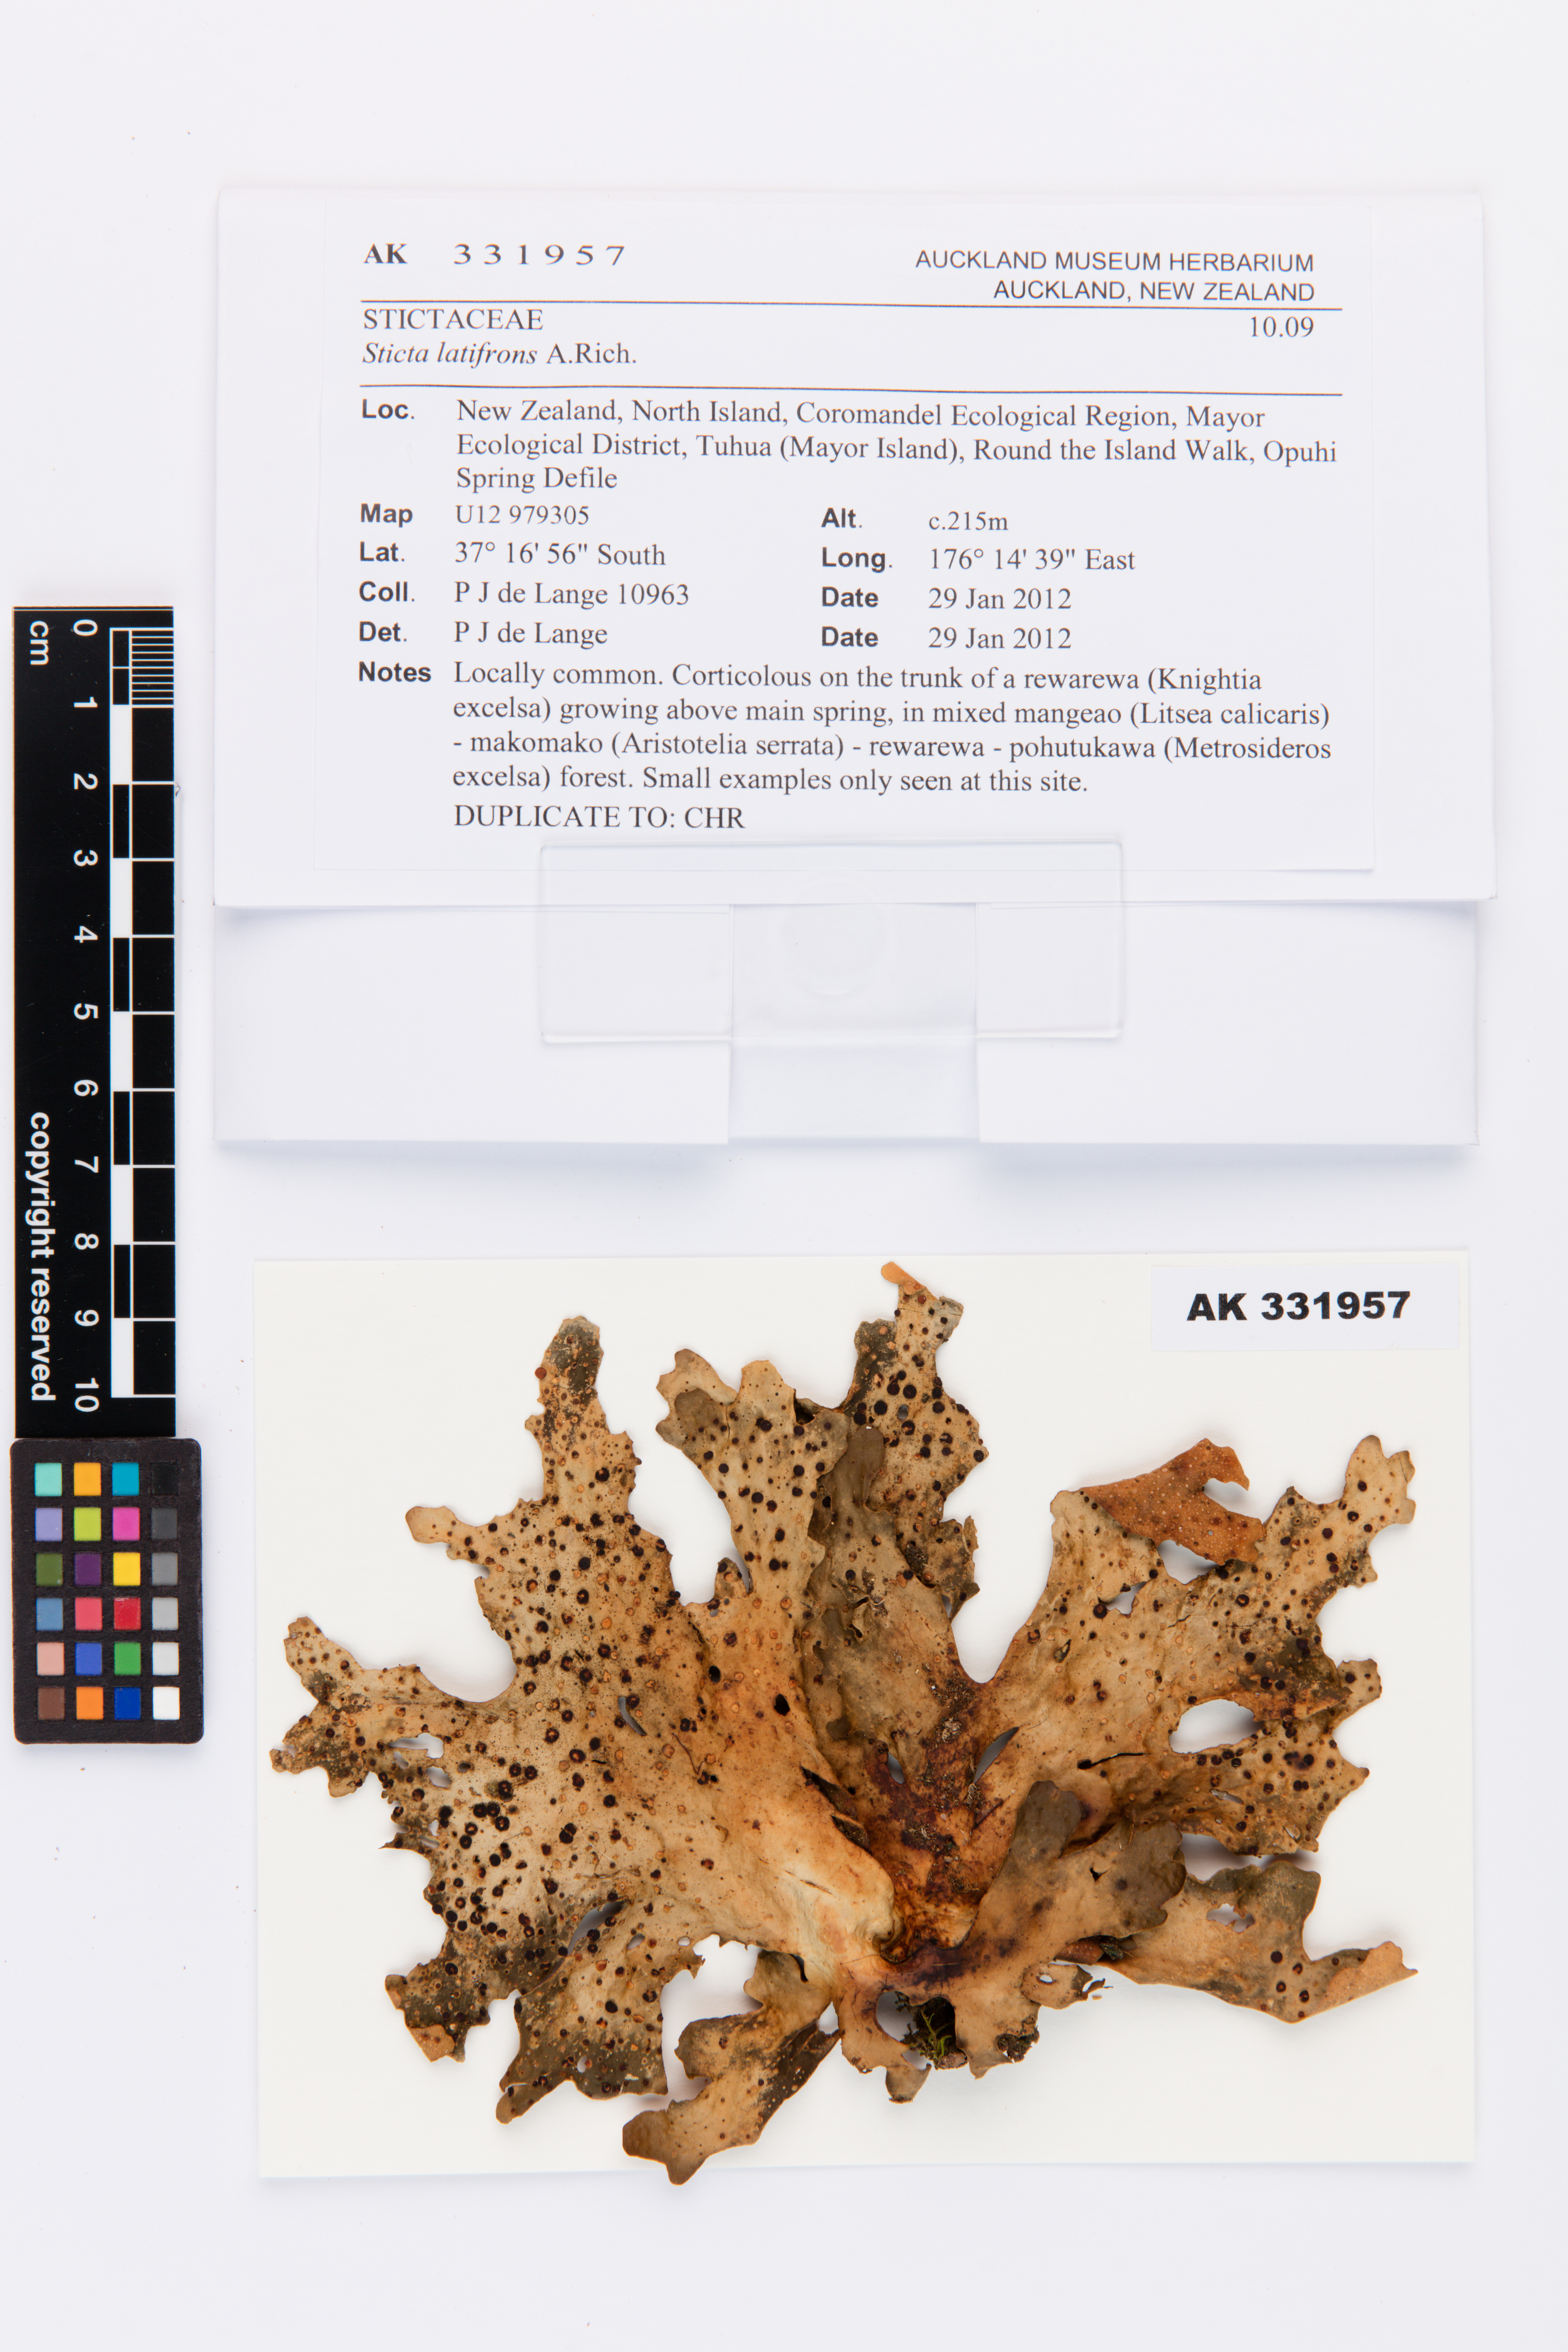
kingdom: Fungi
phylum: Ascomycota
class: Lecanoromycetes
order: Peltigerales
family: Lobariaceae
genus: Sticta
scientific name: Sticta latifrons
